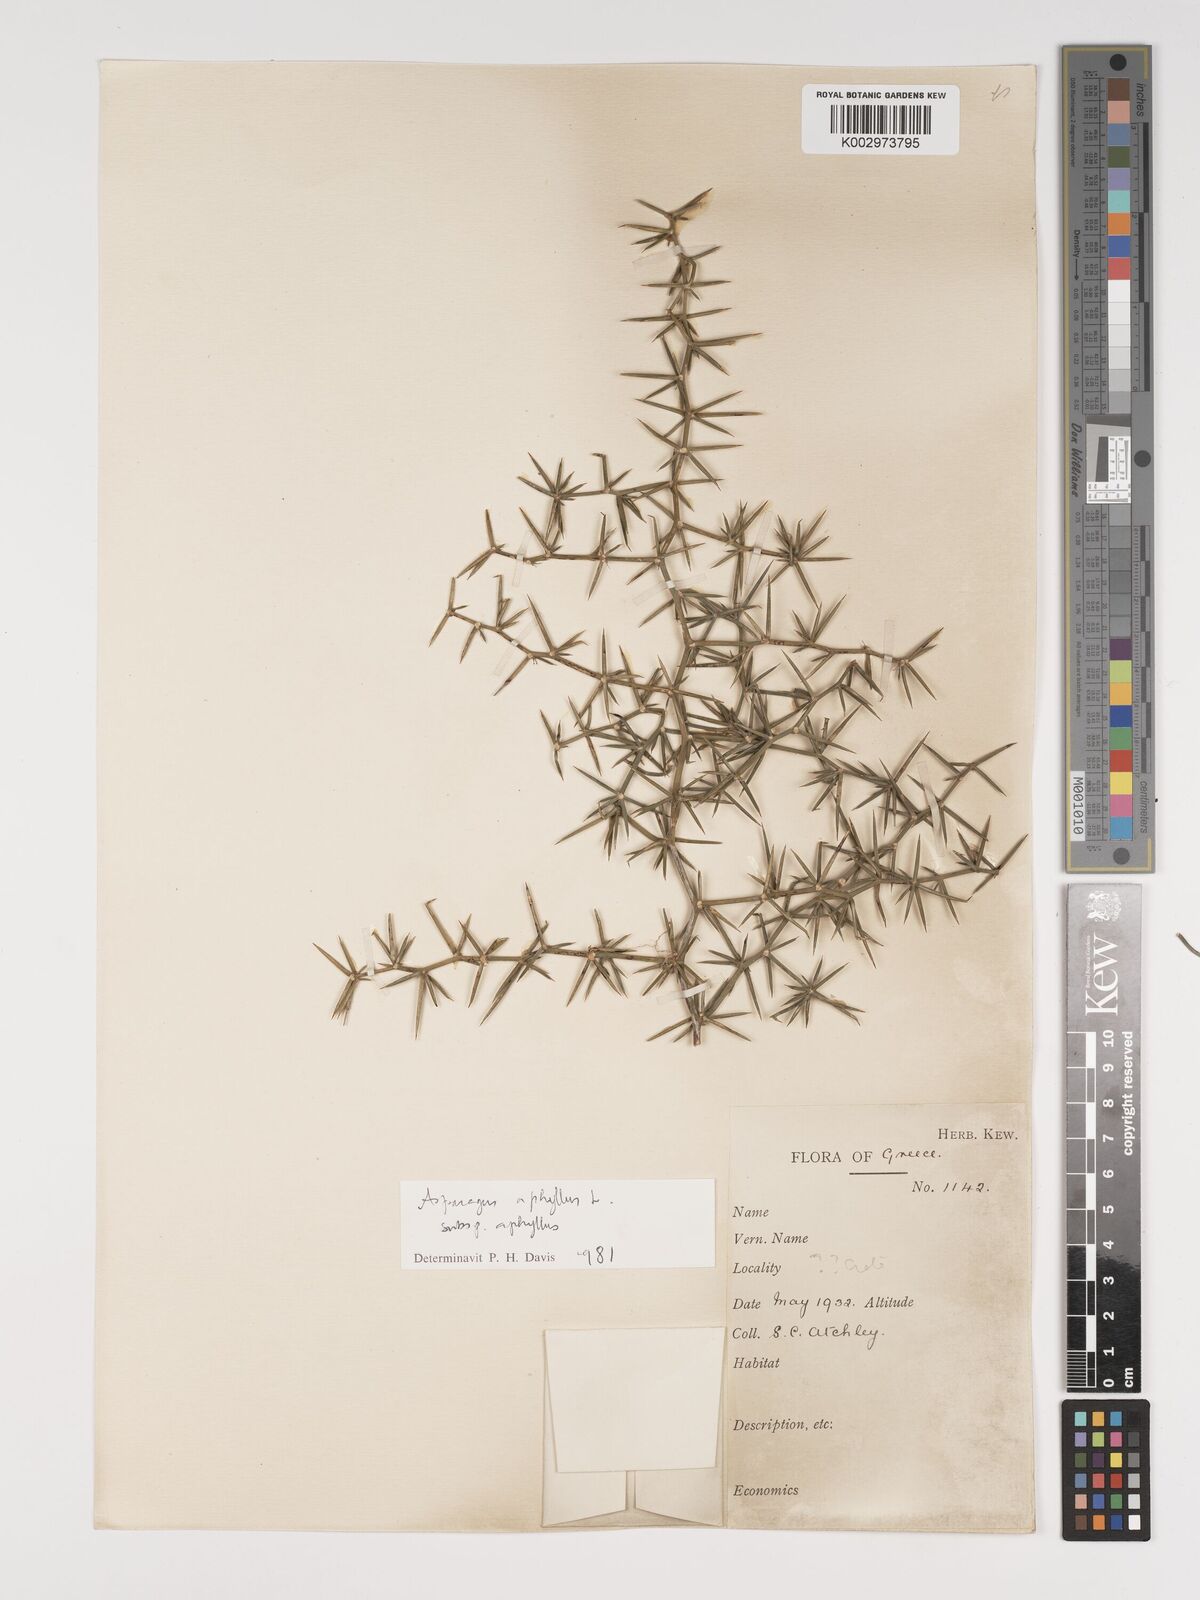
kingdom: Plantae
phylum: Tracheophyta
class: Liliopsida
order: Asparagales
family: Asparagaceae
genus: Asparagus
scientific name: Asparagus aphyllus
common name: Mediterranean asparagus
